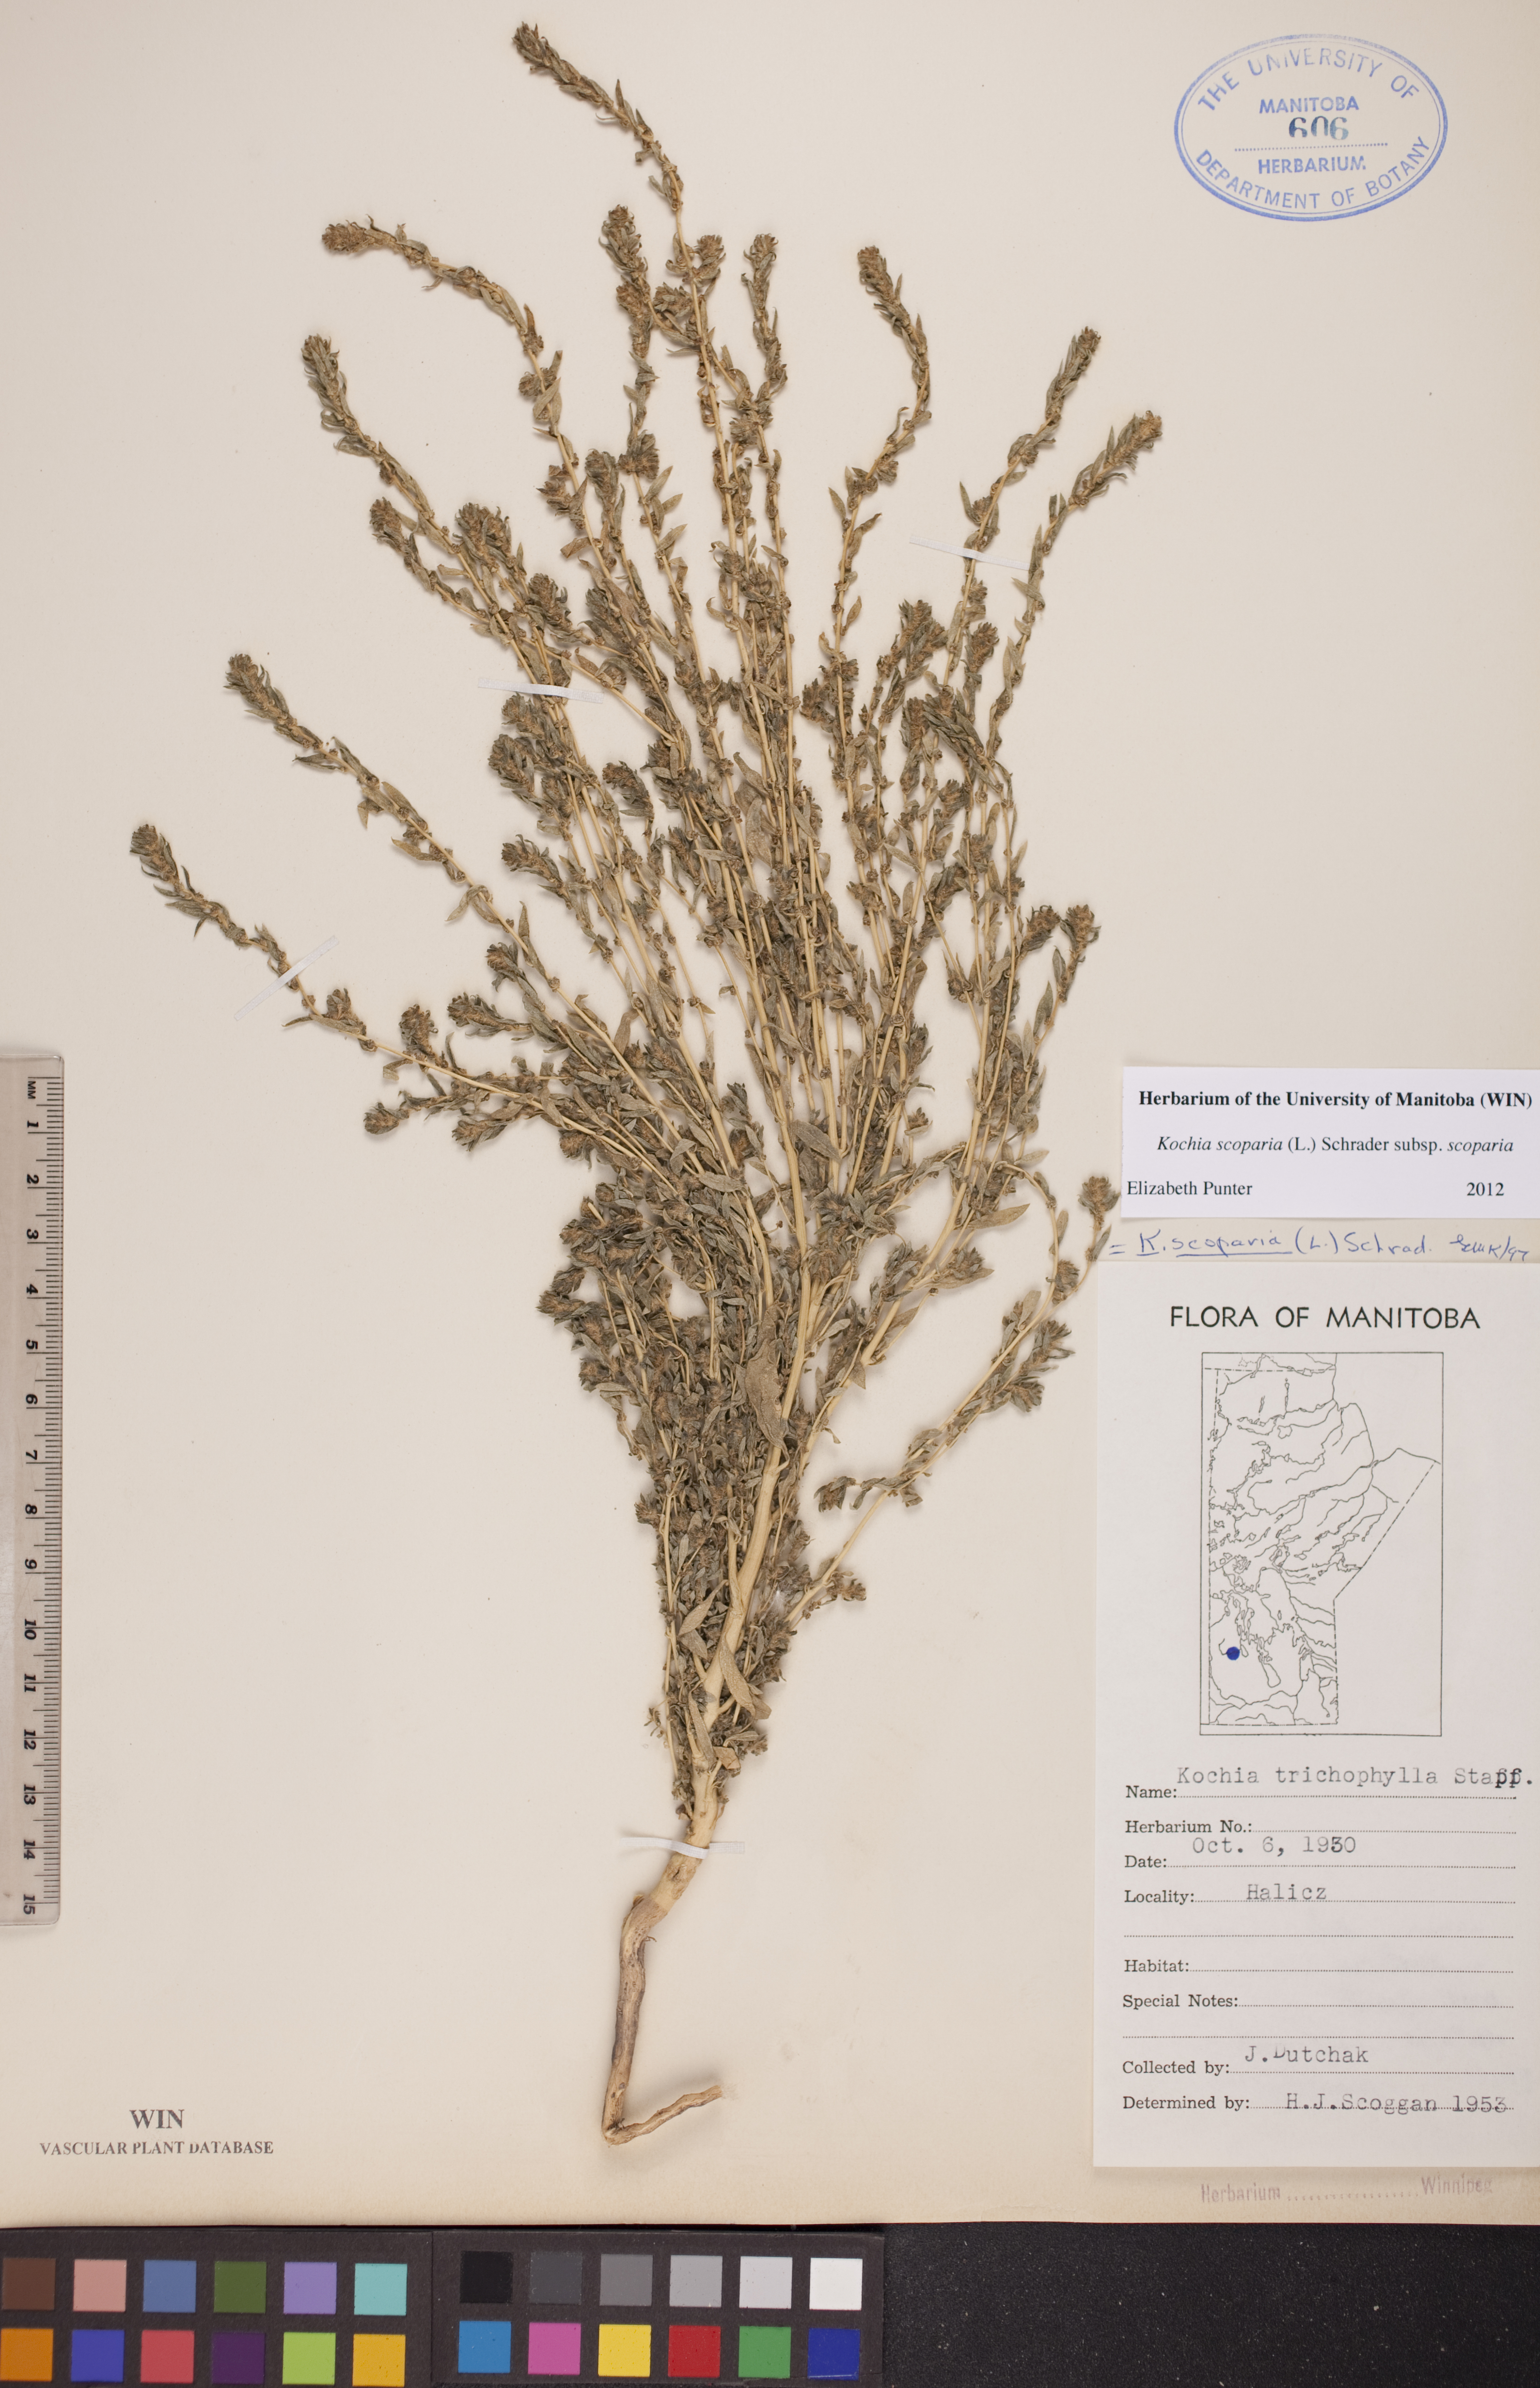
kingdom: Plantae
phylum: Tracheophyta
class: Magnoliopsida
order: Caryophyllales
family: Amaranthaceae
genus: Bassia
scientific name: Bassia scoparia
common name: Belvedere
